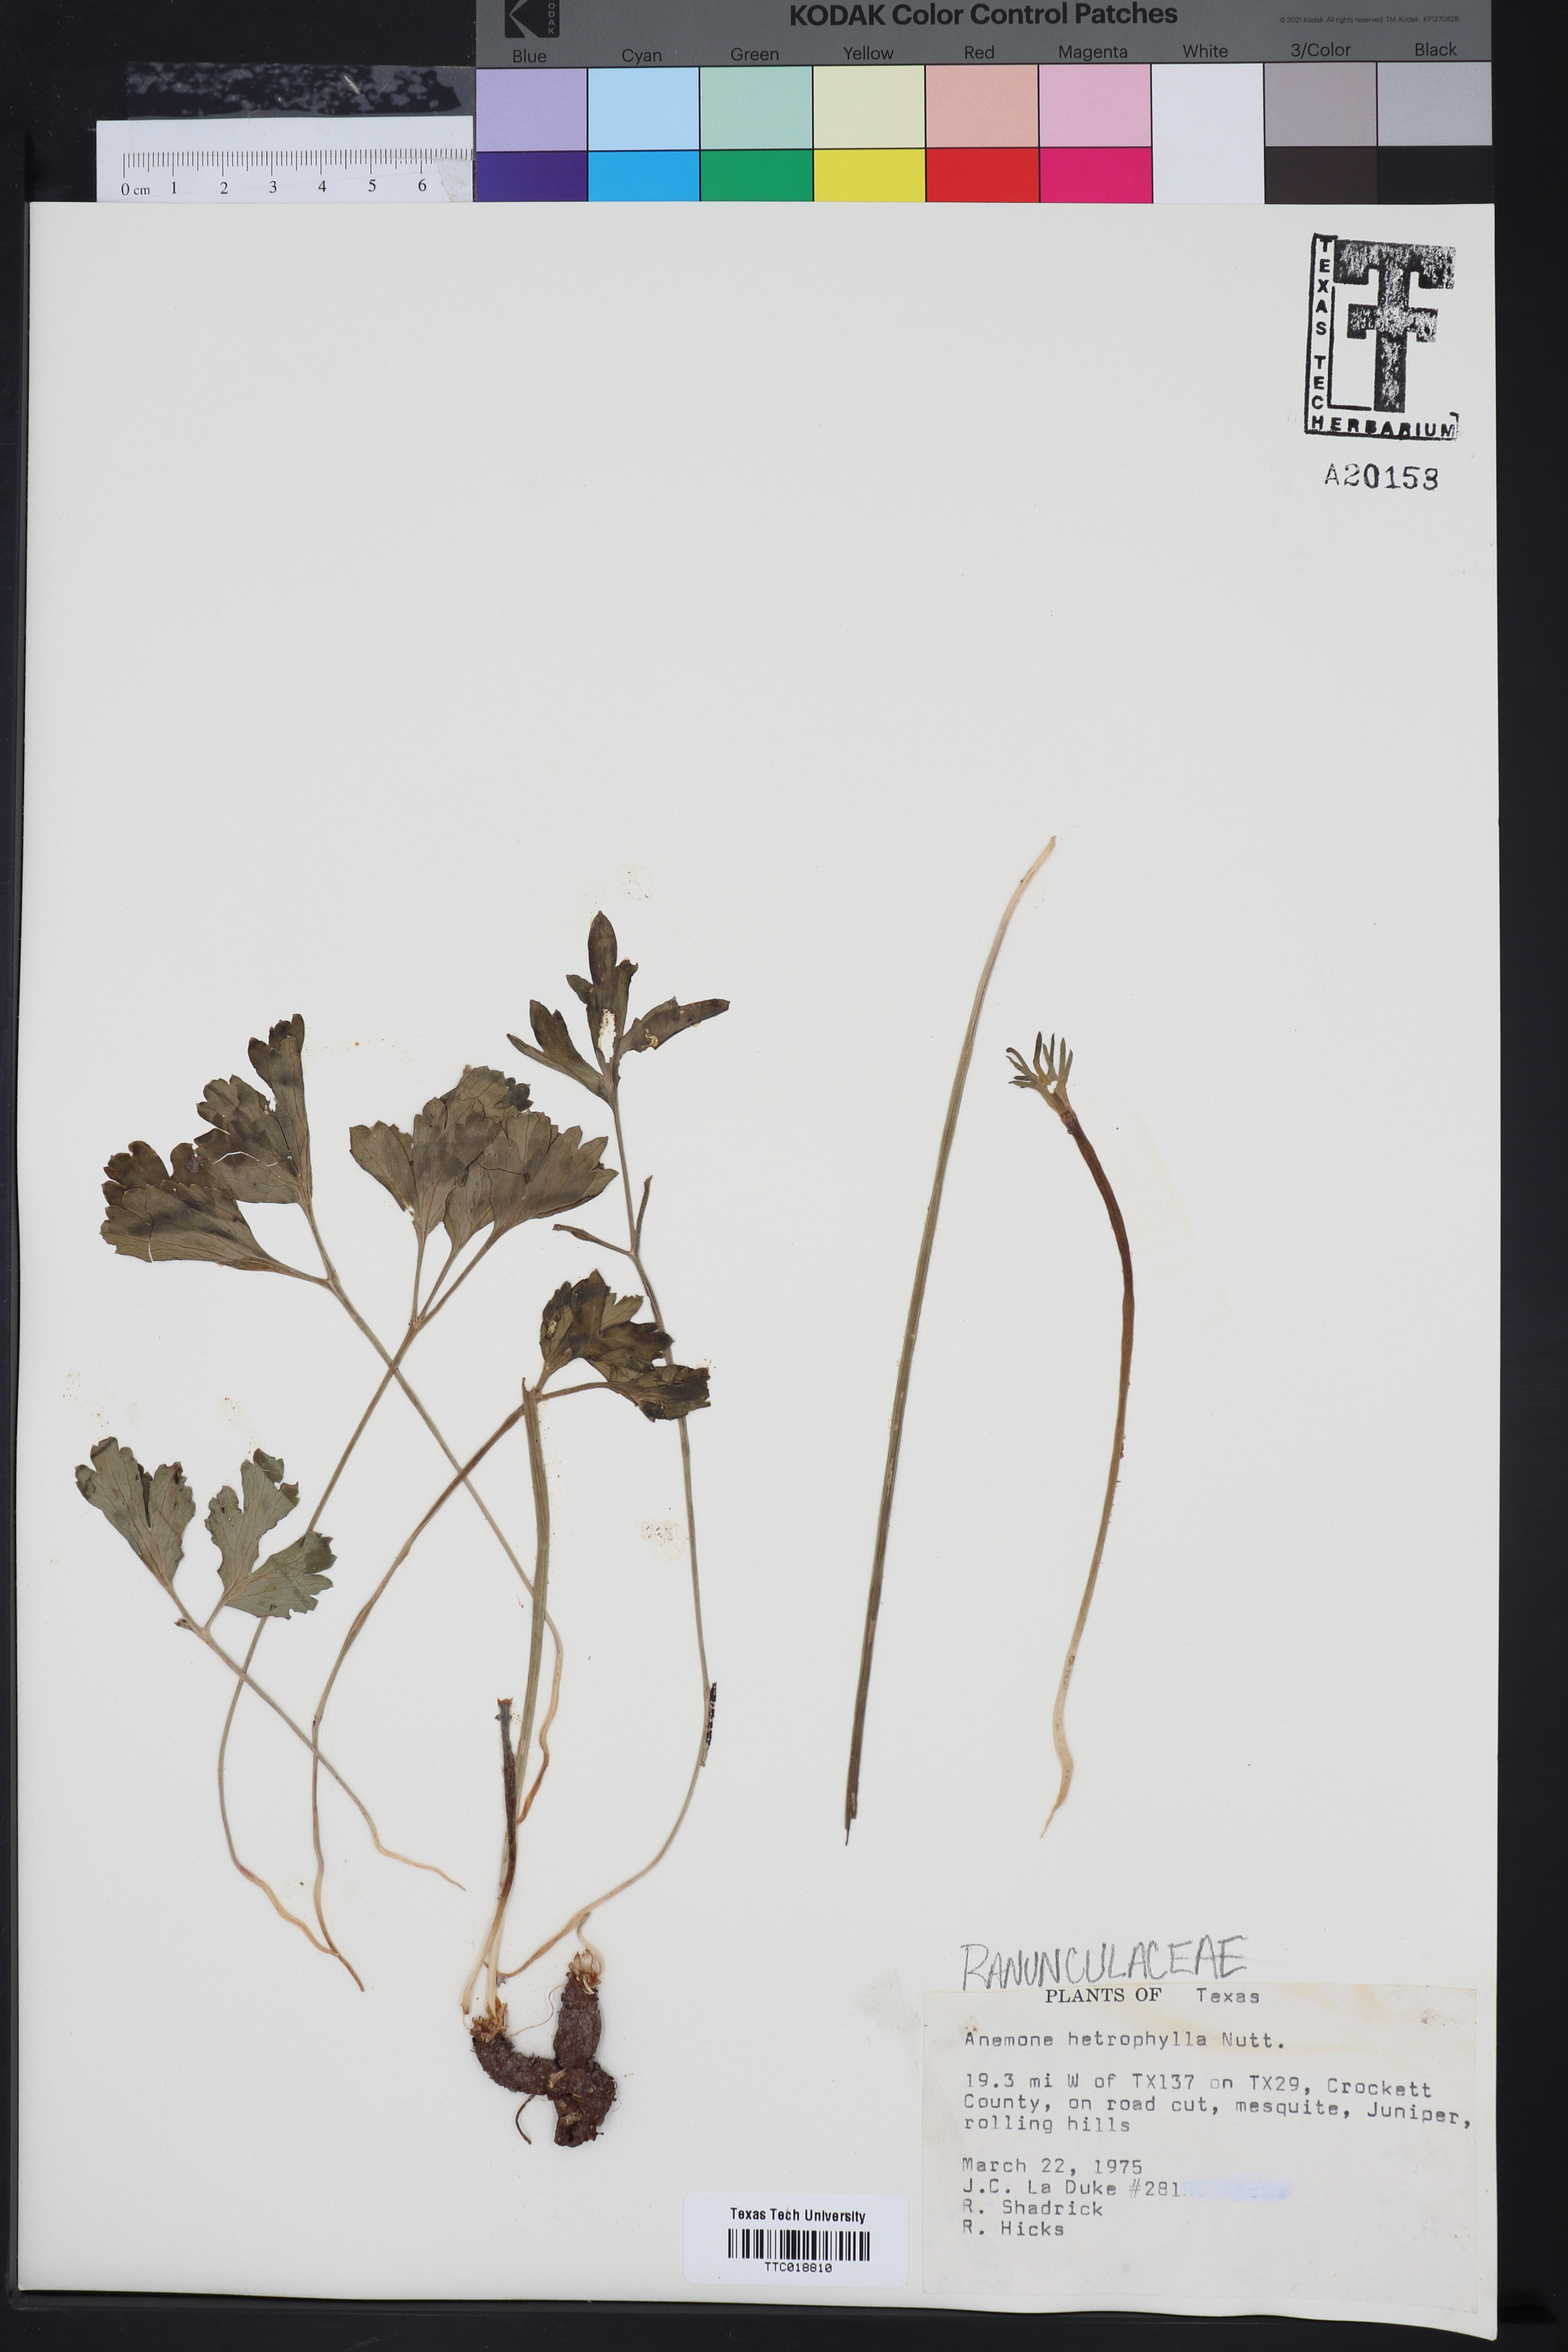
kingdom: Plantae
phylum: Tracheophyta
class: Magnoliopsida
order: Ranunculales
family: Ranunculaceae
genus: Anemone
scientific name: Anemone heterophylla
